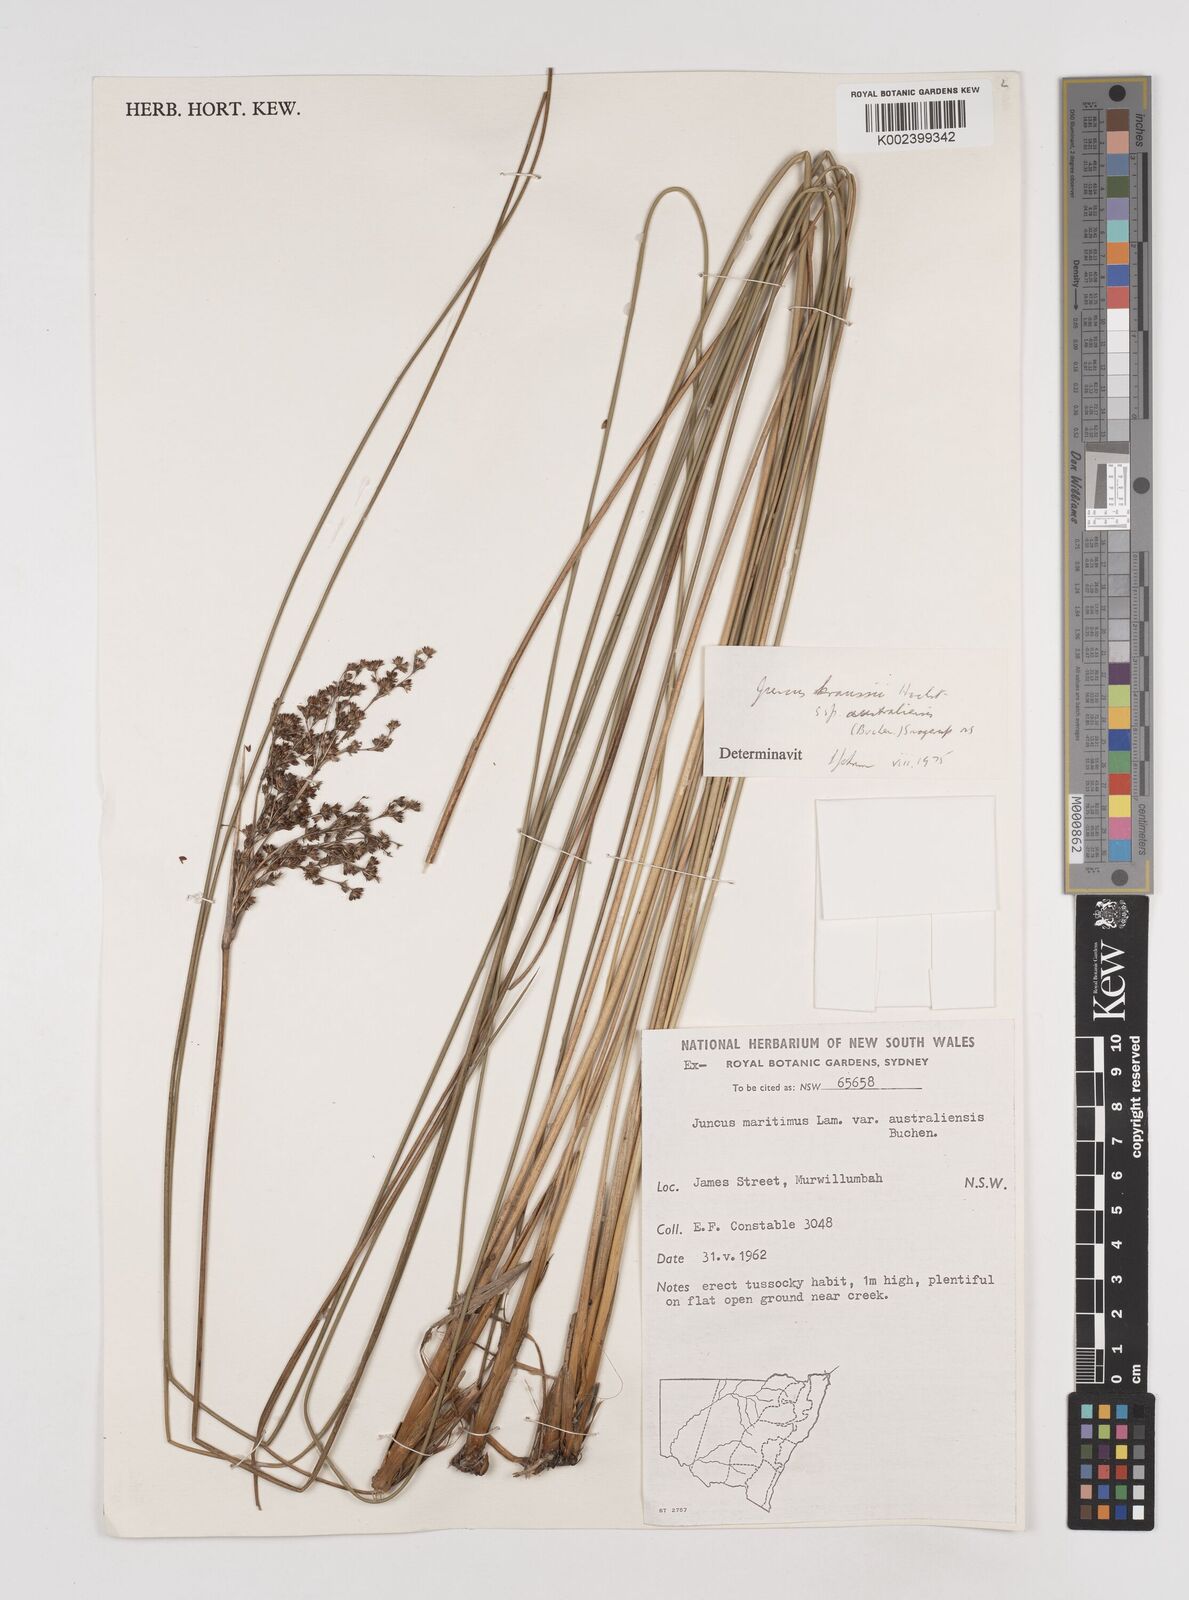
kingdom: Plantae
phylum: Tracheophyta
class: Liliopsida
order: Poales
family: Juncaceae
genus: Juncus
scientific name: Juncus kraussii
